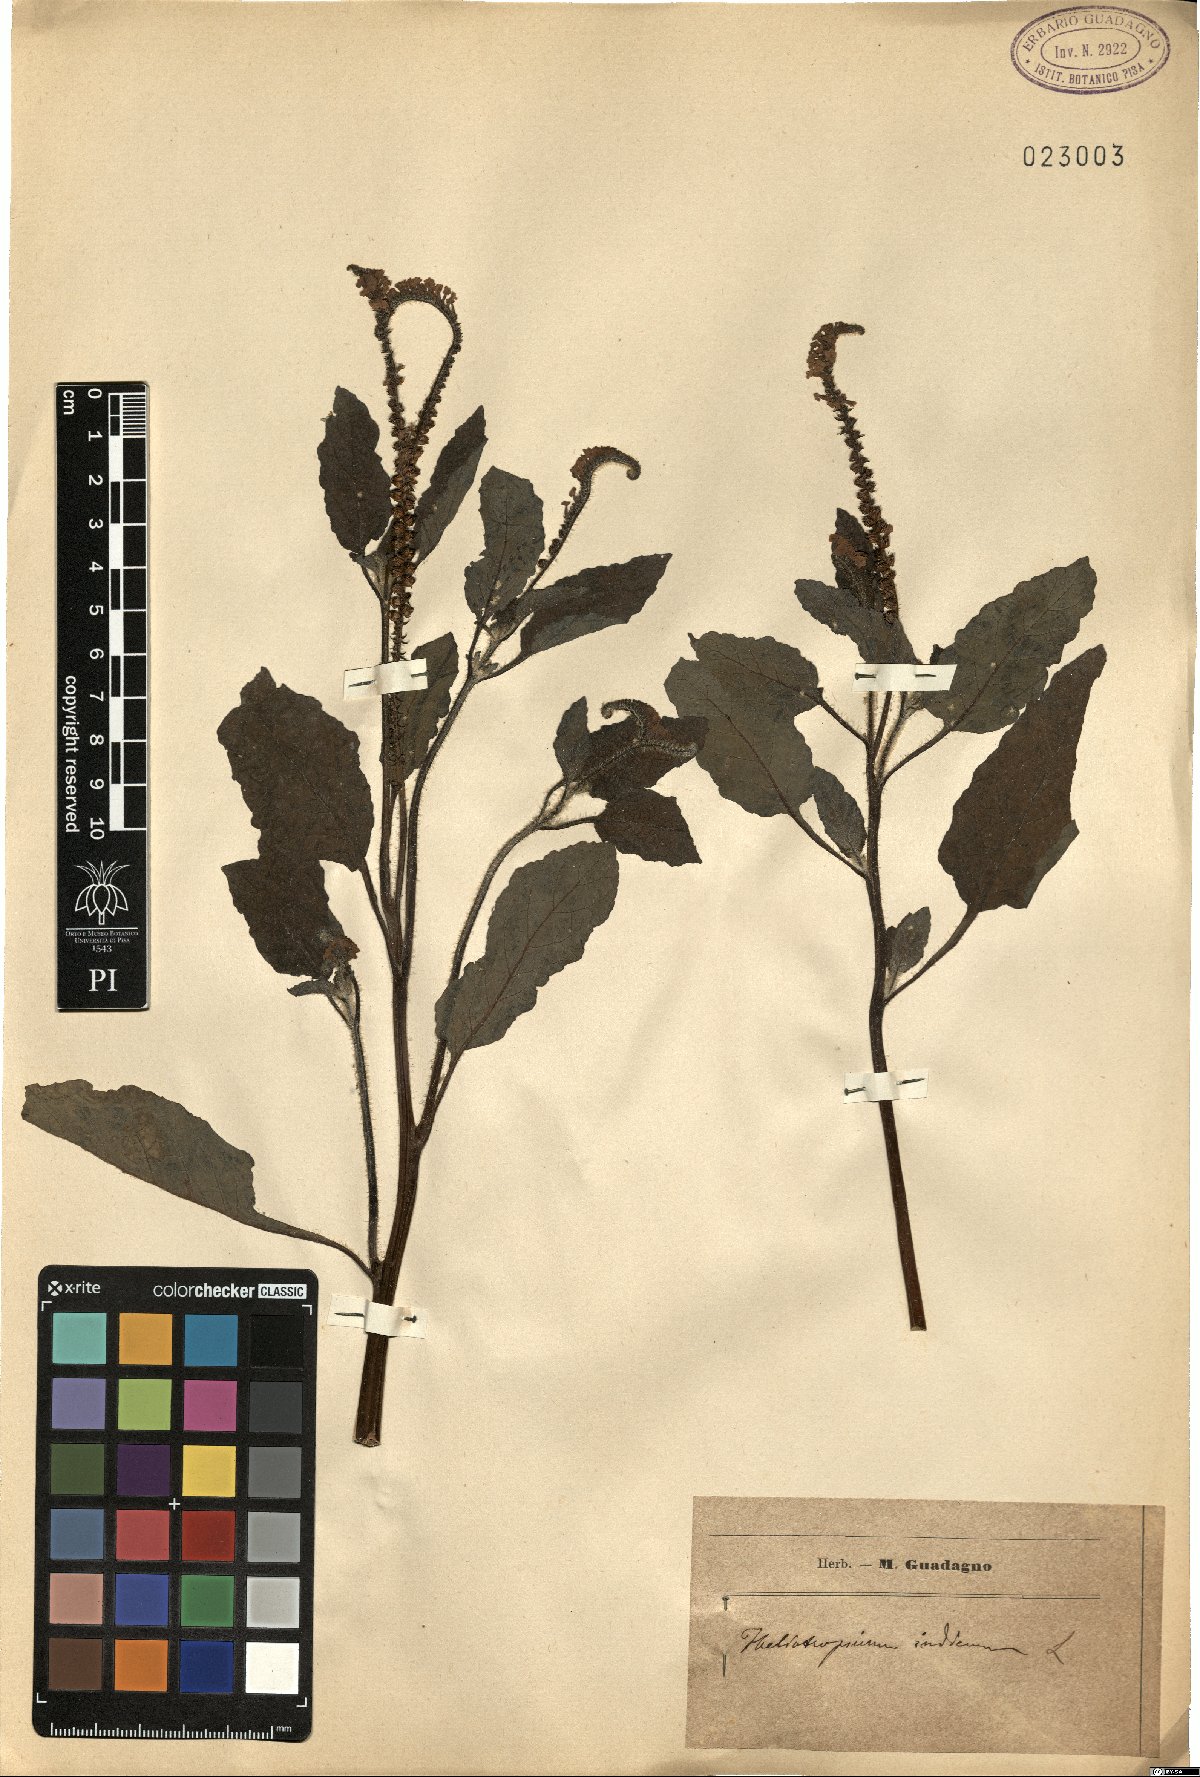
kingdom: Plantae
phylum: Tracheophyta
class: Magnoliopsida
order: Boraginales
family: Heliotropiaceae
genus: Heliotropium
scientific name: Heliotropium indicum
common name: Indian heliotrope
